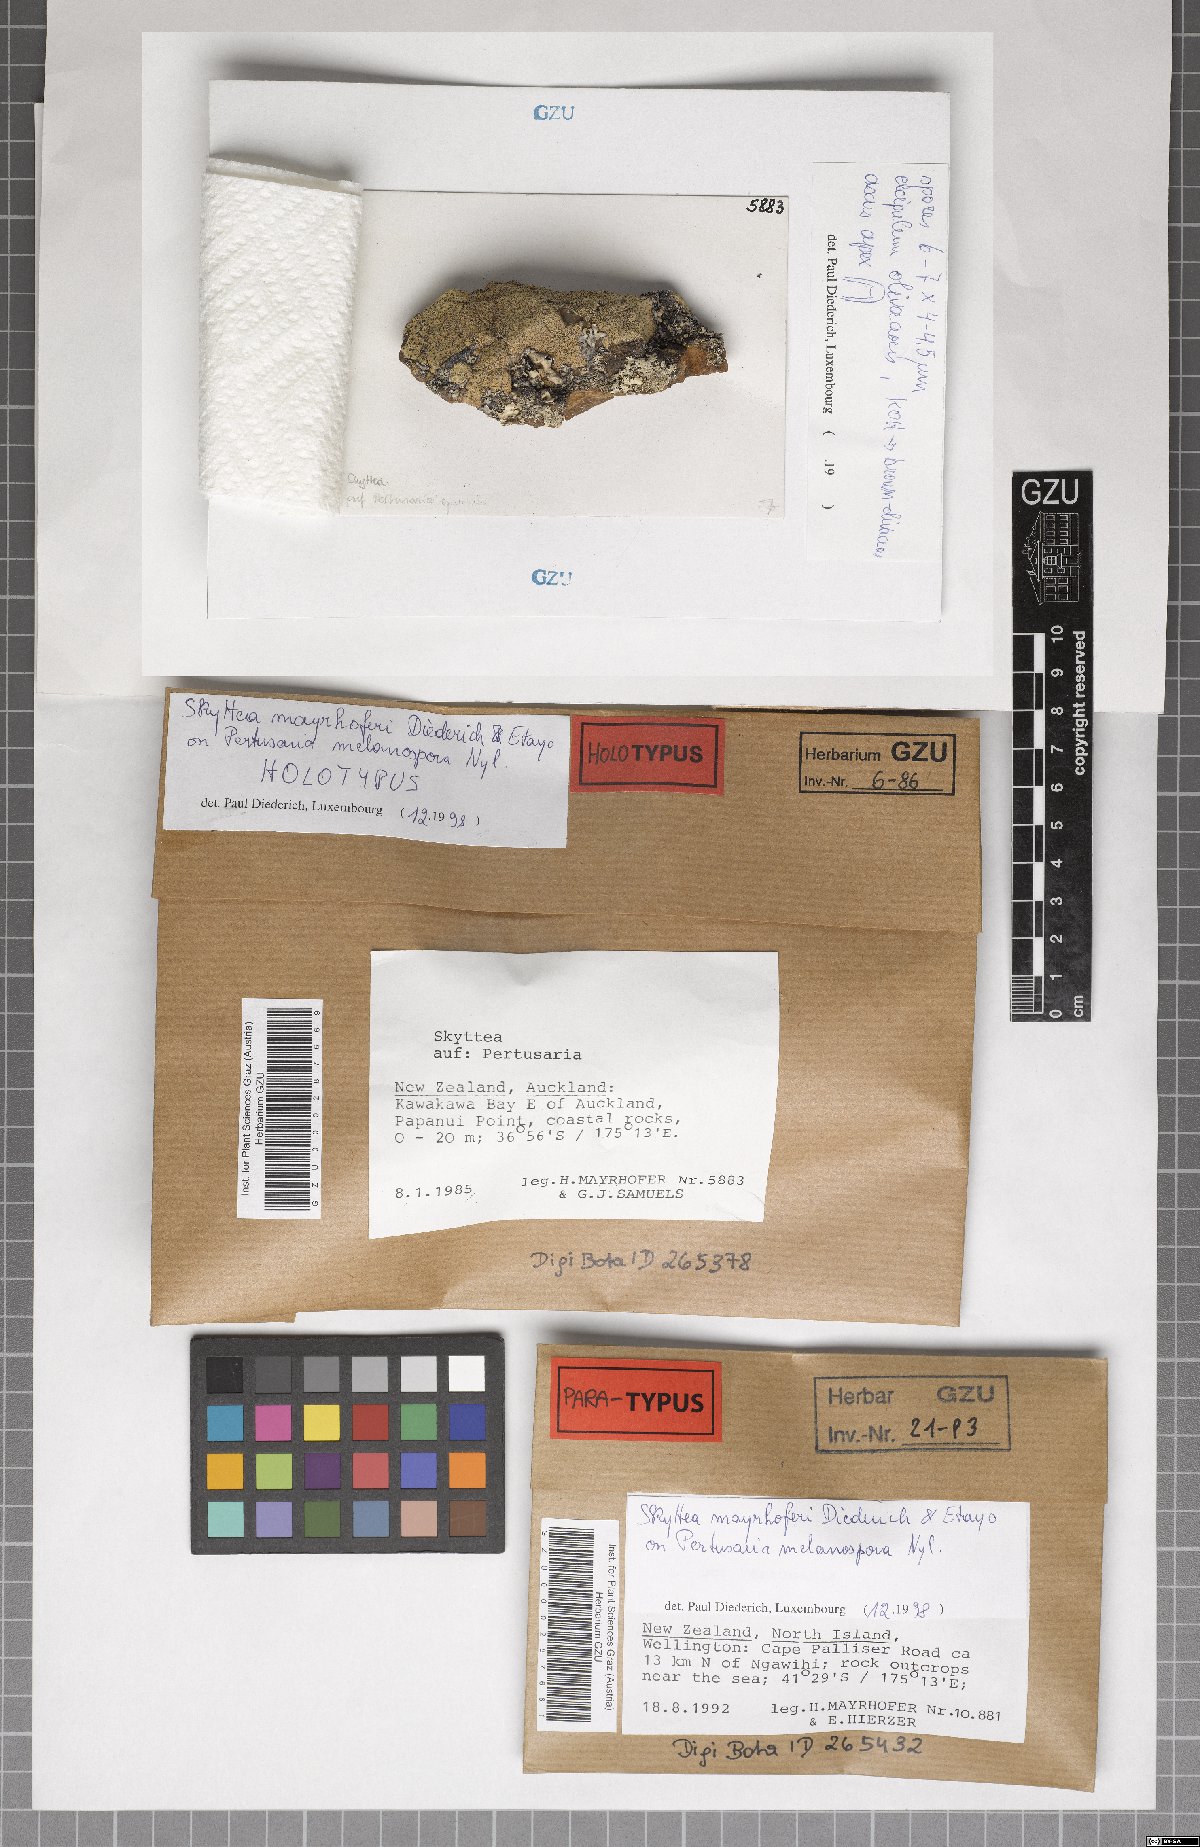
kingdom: Fungi
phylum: Ascomycota
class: Leotiomycetes
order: Helotiales
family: Cordieritidaceae
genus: Skyttea
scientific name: Skyttea mayrhoferi
